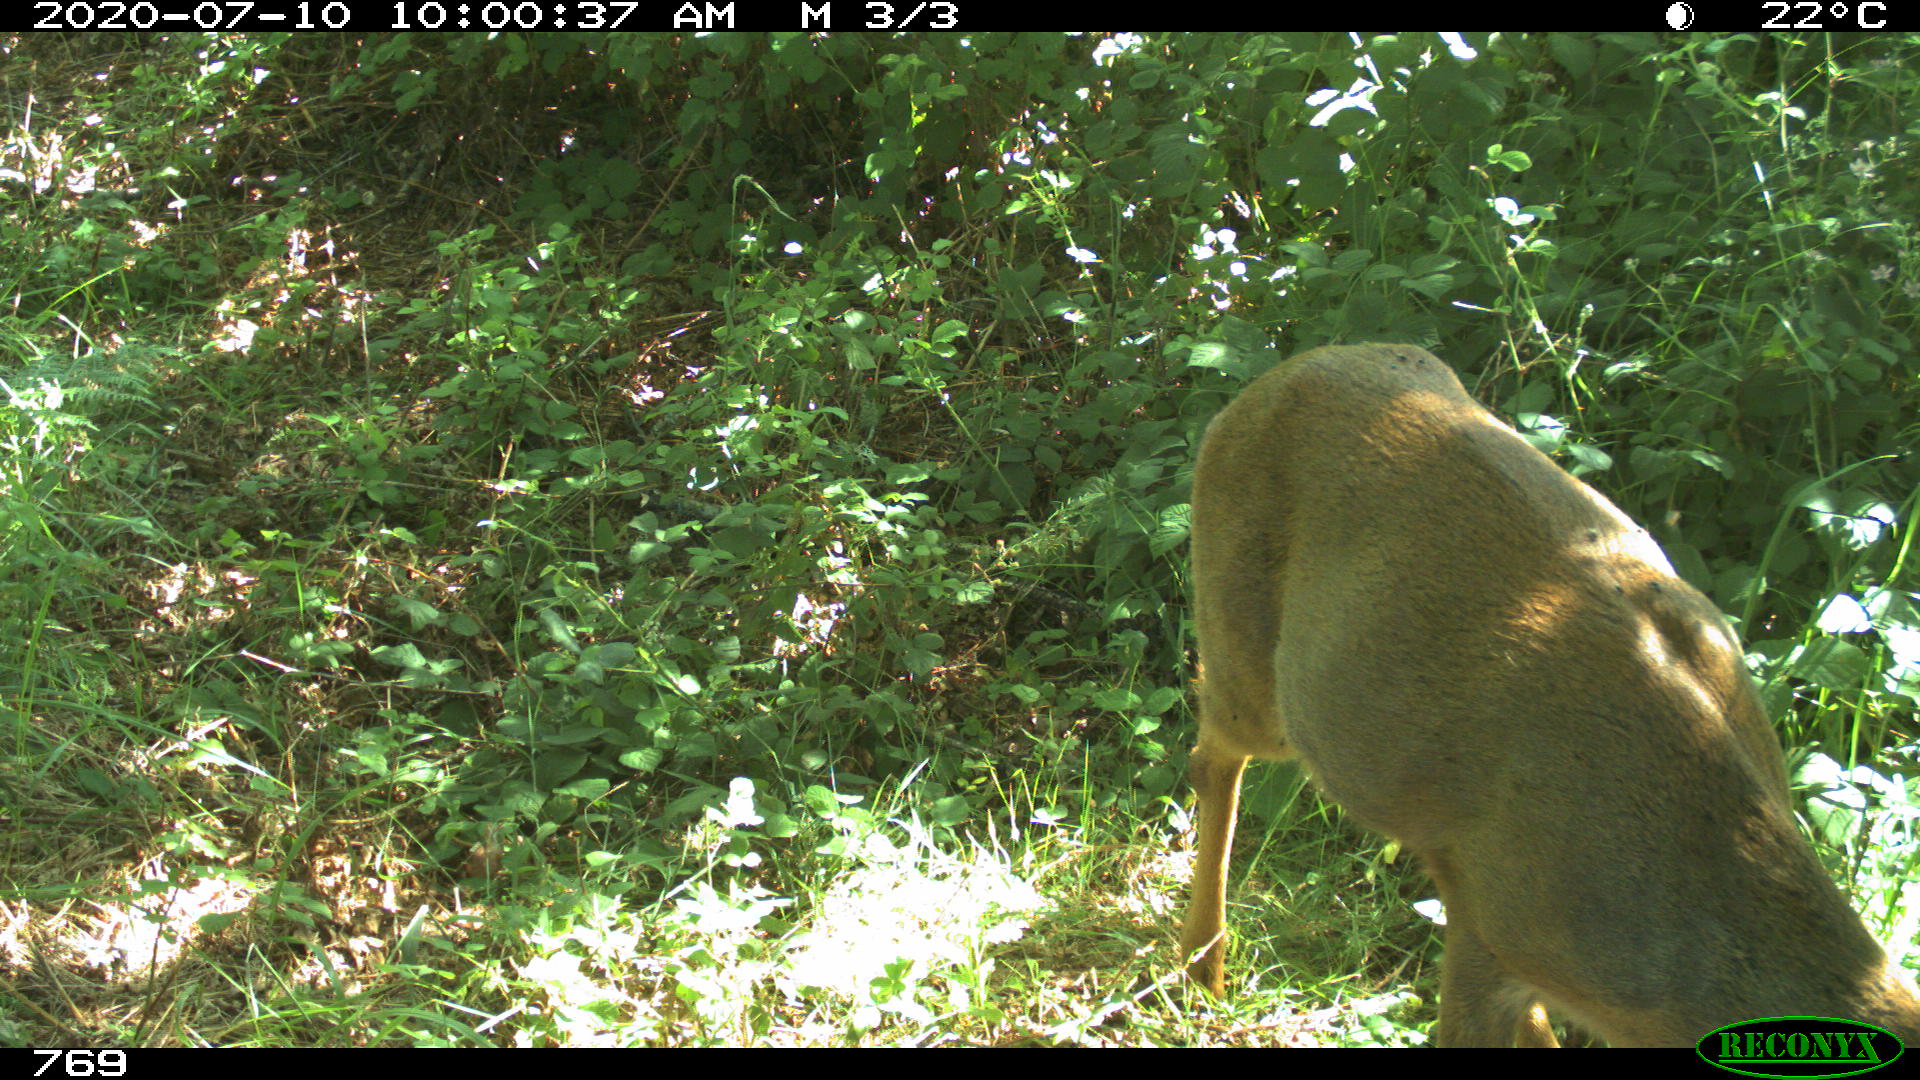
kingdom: Animalia
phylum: Chordata
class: Mammalia
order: Artiodactyla
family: Cervidae
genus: Capreolus
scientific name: Capreolus capreolus
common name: Western roe deer
